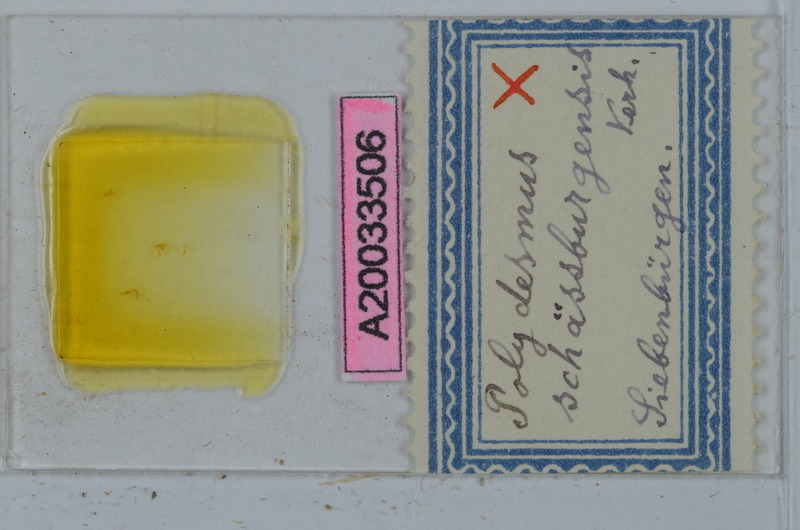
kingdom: Animalia
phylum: Arthropoda
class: Diplopoda
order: Polydesmida
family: Polydesmidae
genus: Polydesmus
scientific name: Polydesmus schaessburgensis
